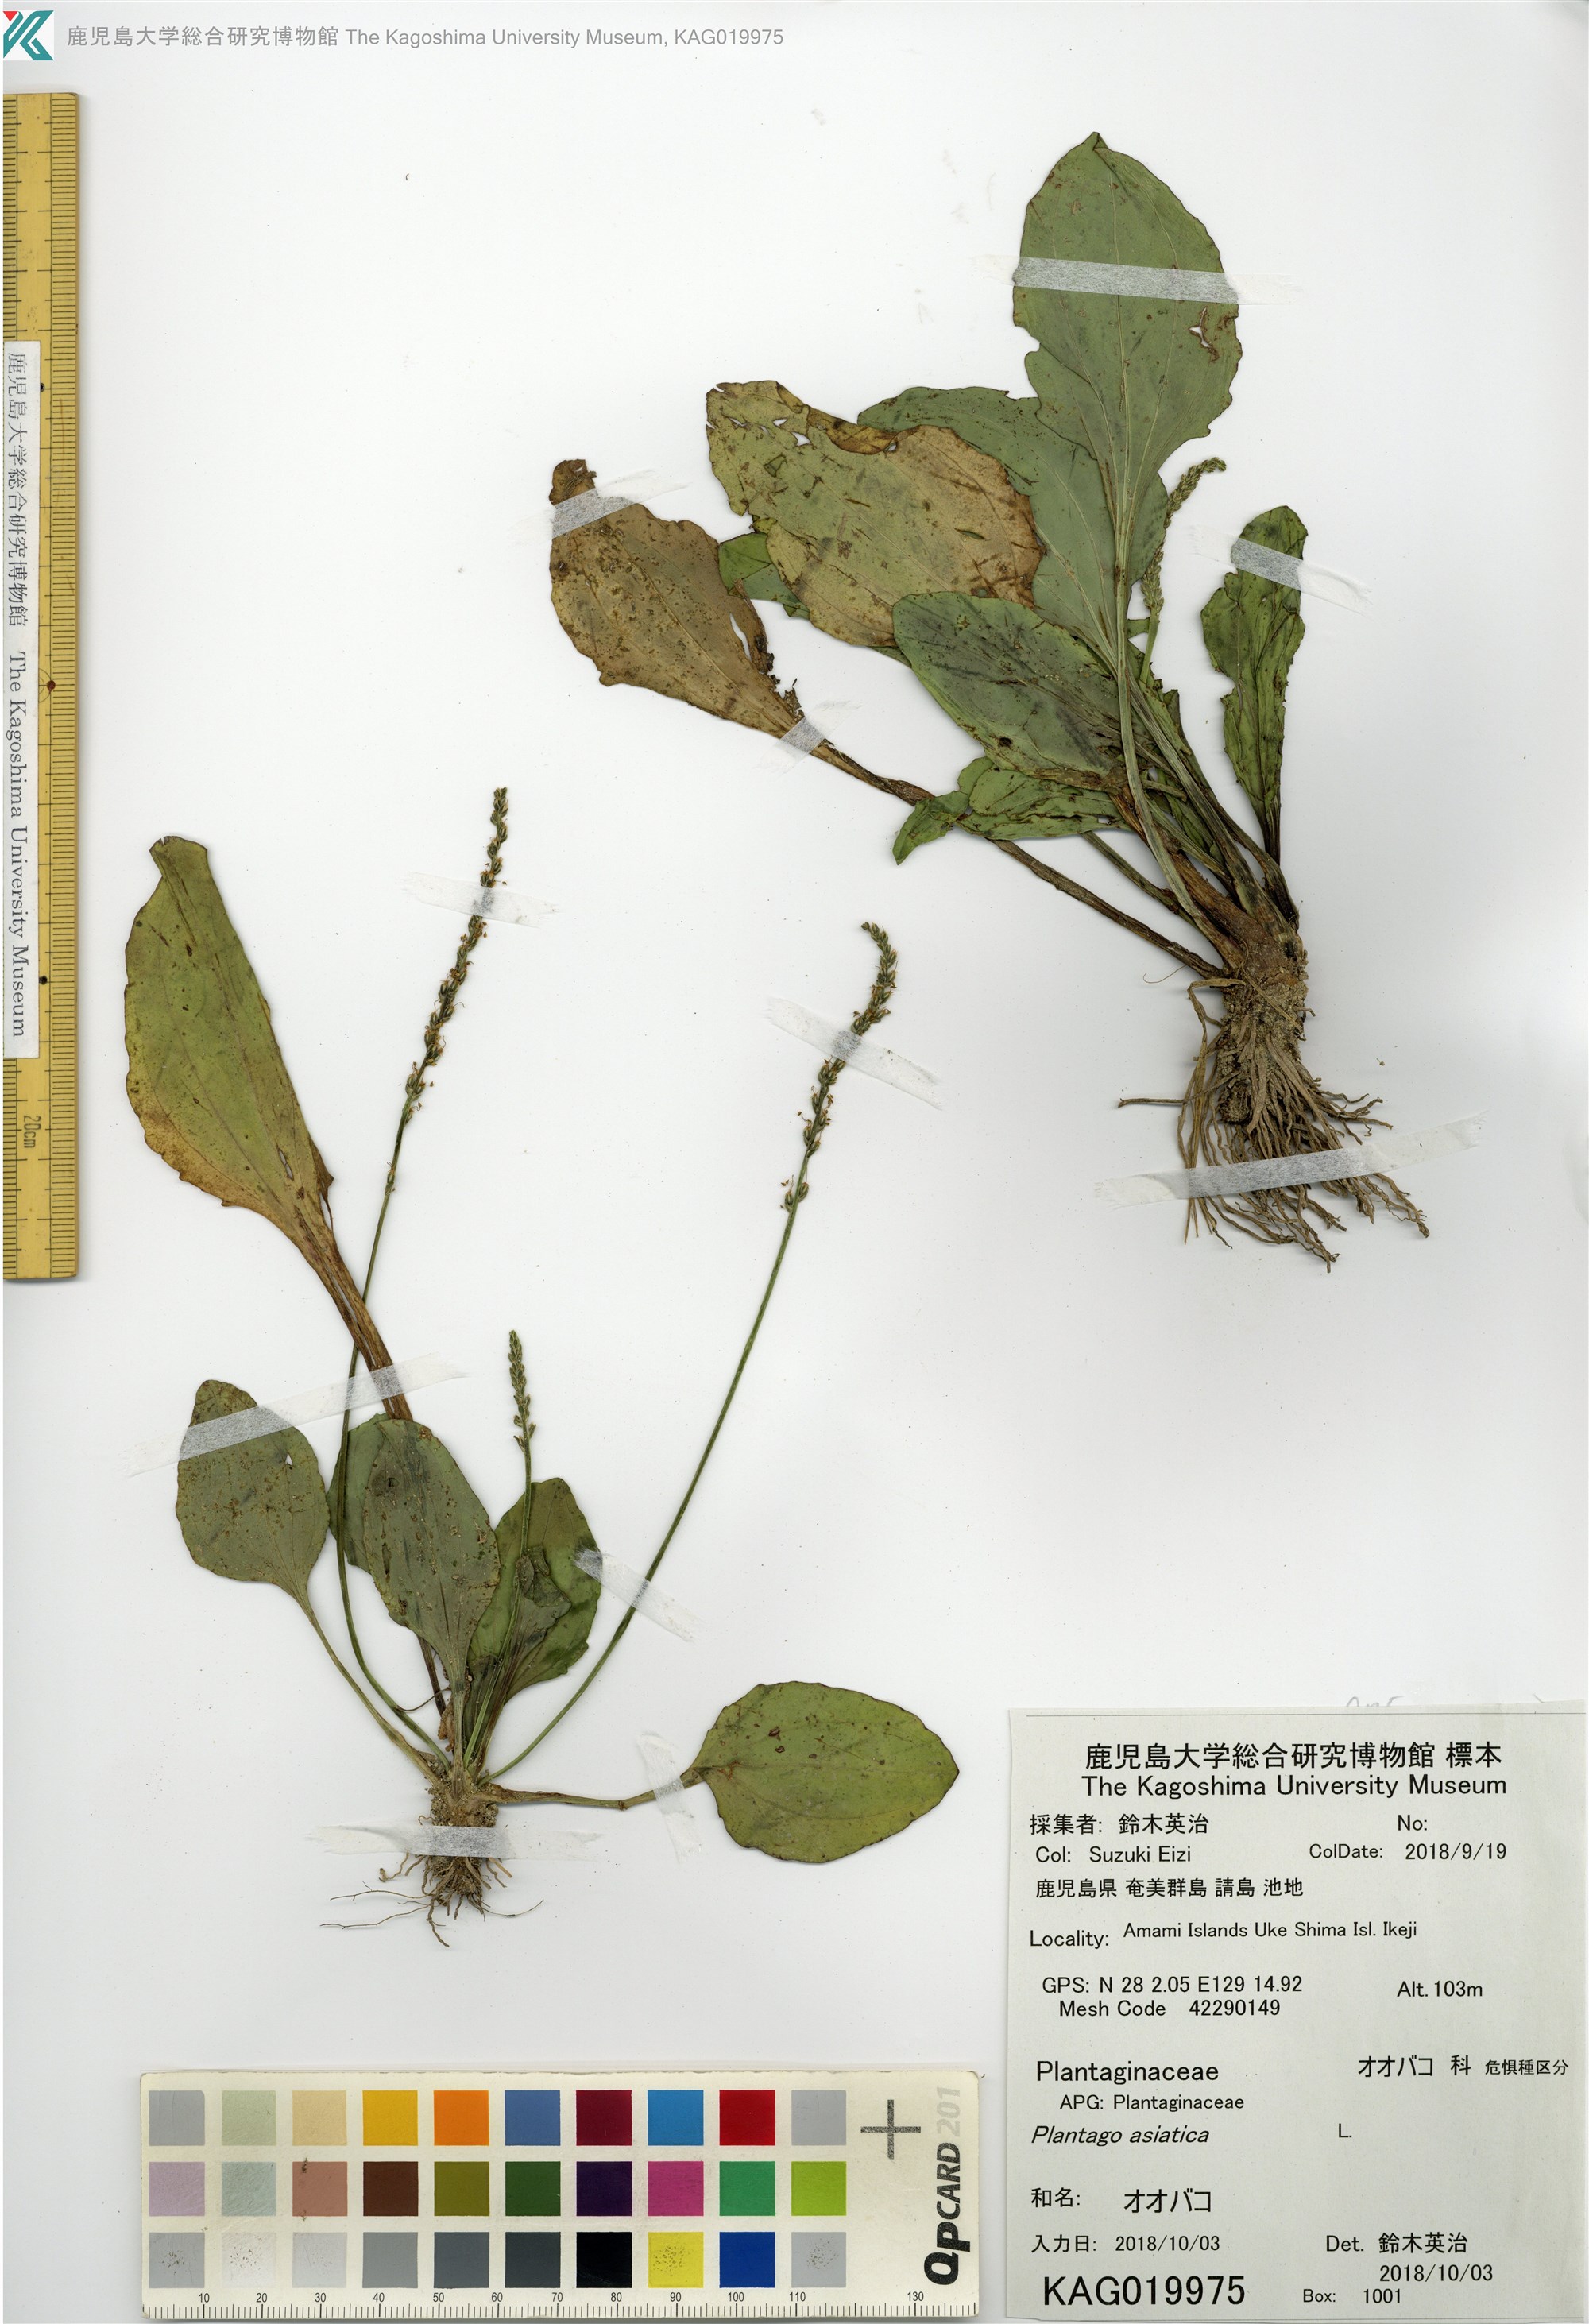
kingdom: Plantae
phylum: Tracheophyta
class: Magnoliopsida
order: Lamiales
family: Plantaginaceae
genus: Plantago
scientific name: Plantago asiatica
